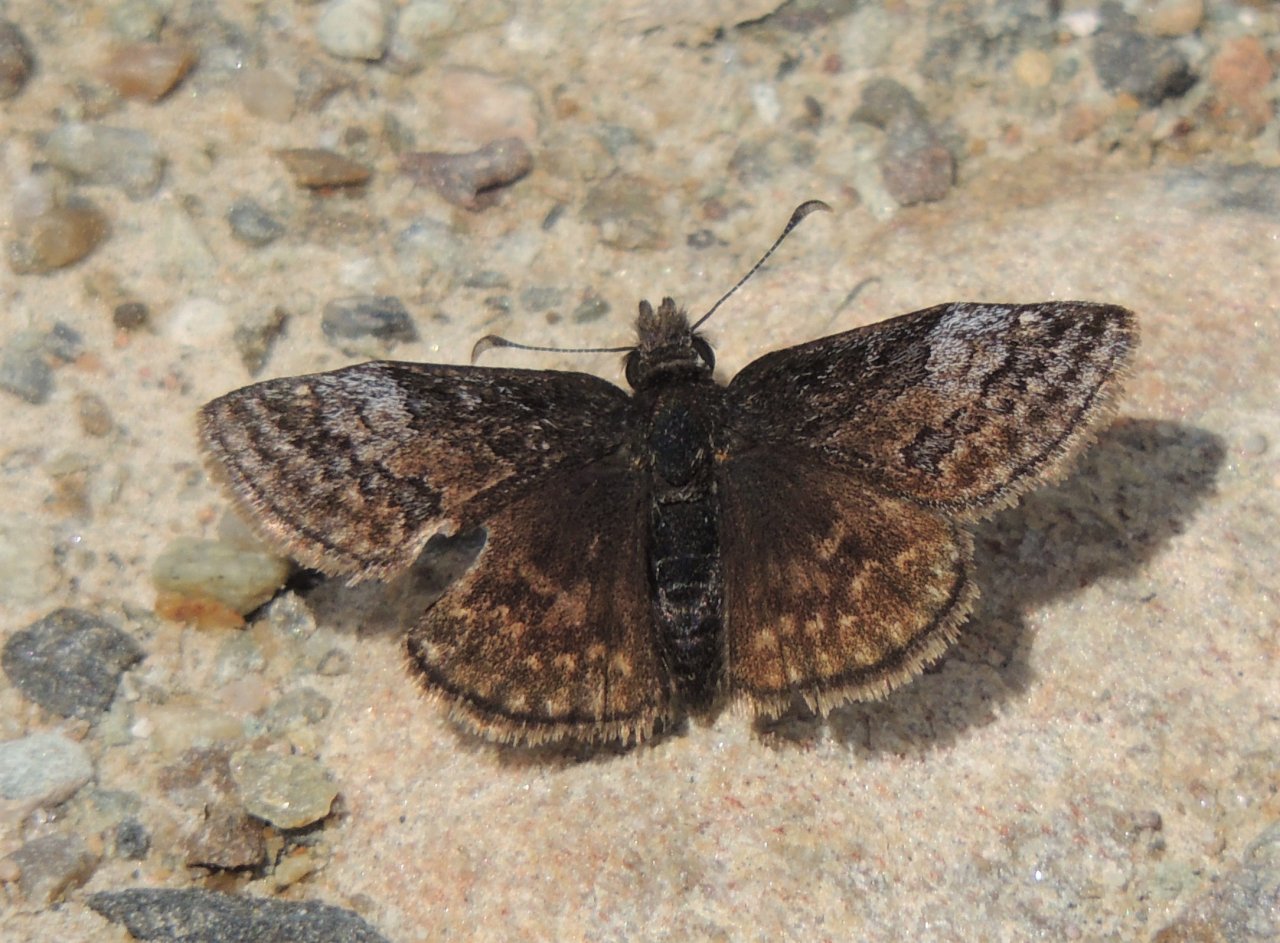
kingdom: Animalia
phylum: Arthropoda
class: Insecta
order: Lepidoptera
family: Hesperiidae
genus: Erynnis
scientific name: Erynnis icelus
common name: Dreamy Duskywing
